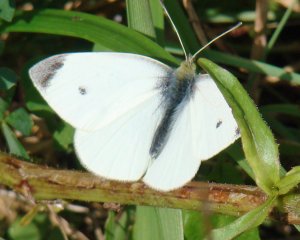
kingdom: Animalia
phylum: Arthropoda
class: Insecta
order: Lepidoptera
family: Pieridae
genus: Pieris
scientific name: Pieris rapae
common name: Cabbage White
